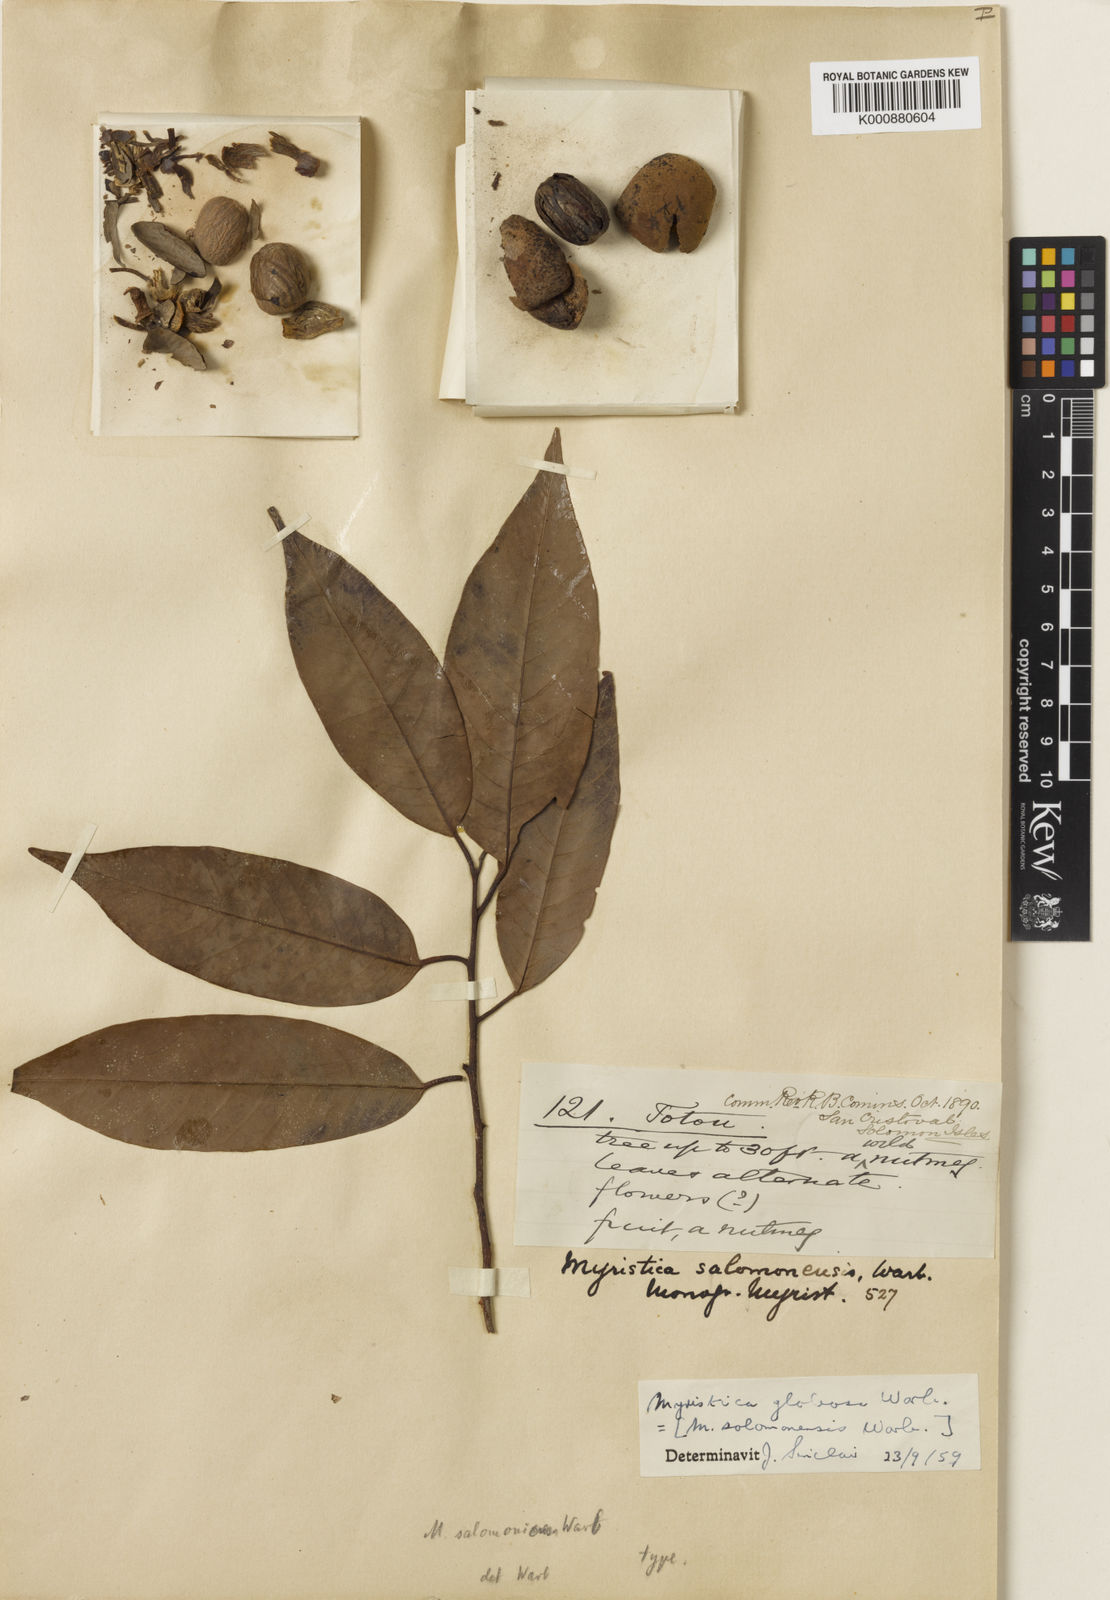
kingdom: Plantae
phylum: Tracheophyta
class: Magnoliopsida
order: Magnoliales
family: Myristicaceae
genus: Myristica
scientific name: Myristica globosa
